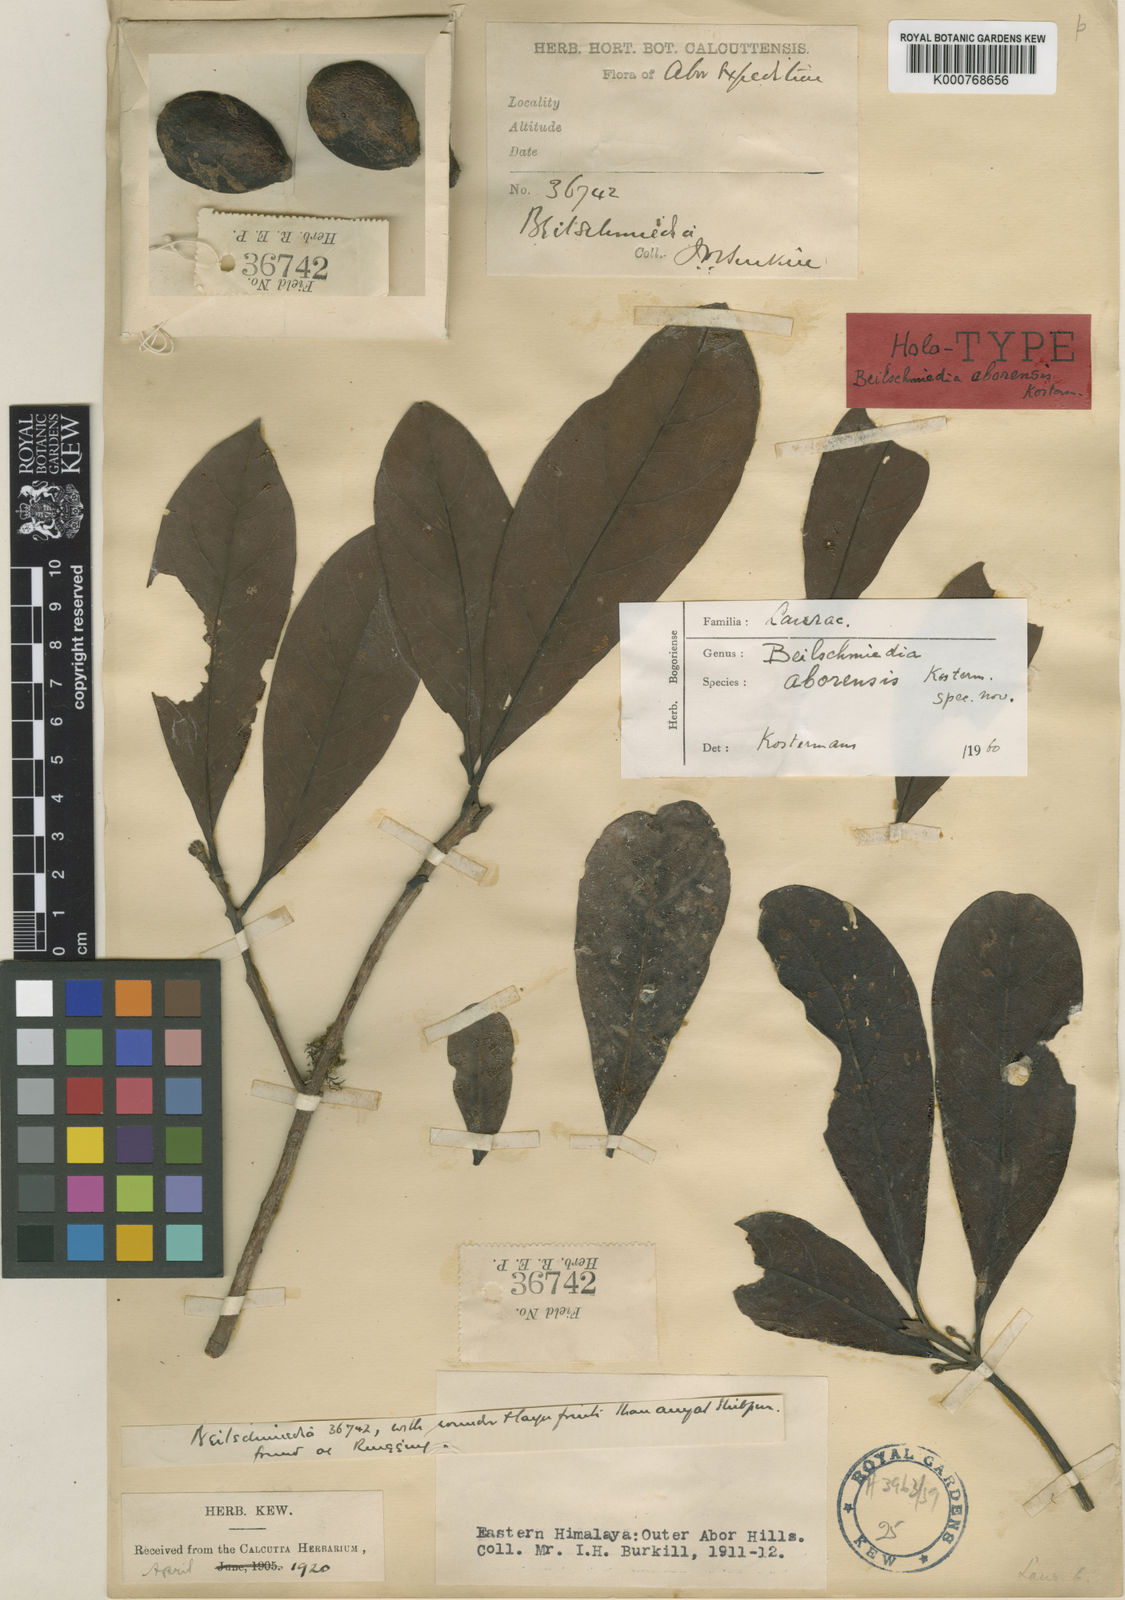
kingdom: Plantae
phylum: Tracheophyta
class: Magnoliopsida
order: Laurales
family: Lauraceae
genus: Beilschmiedia
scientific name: Beilschmiedia aborensis
